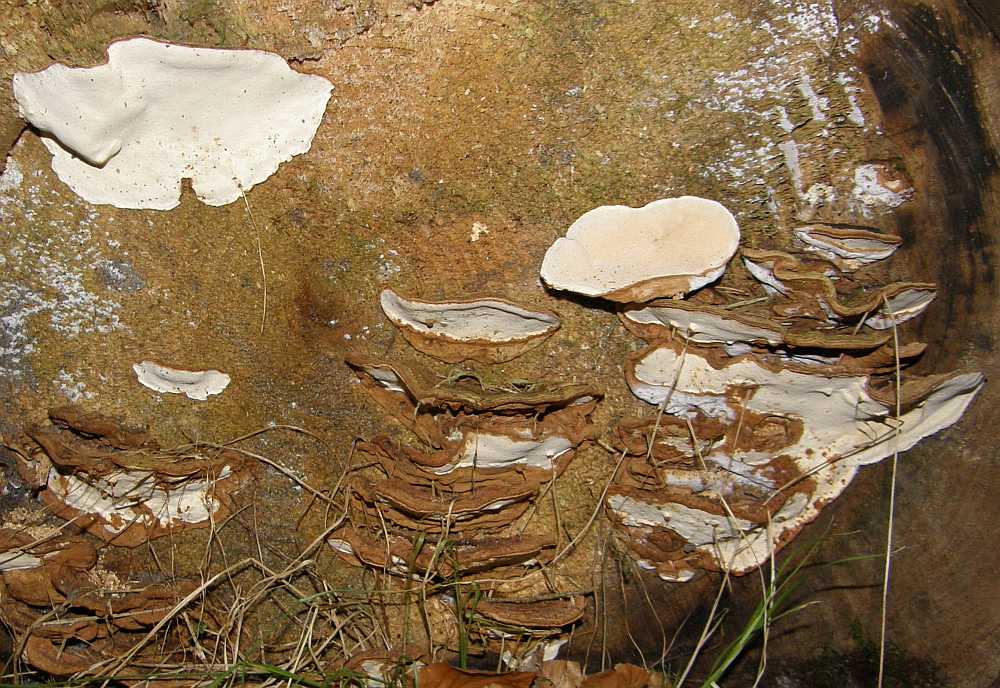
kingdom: Fungi
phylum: Basidiomycota
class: Agaricomycetes
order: Russulales
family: Bondarzewiaceae
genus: Heterobasidion
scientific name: Heterobasidion annosum
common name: almindelig rodfordærver
